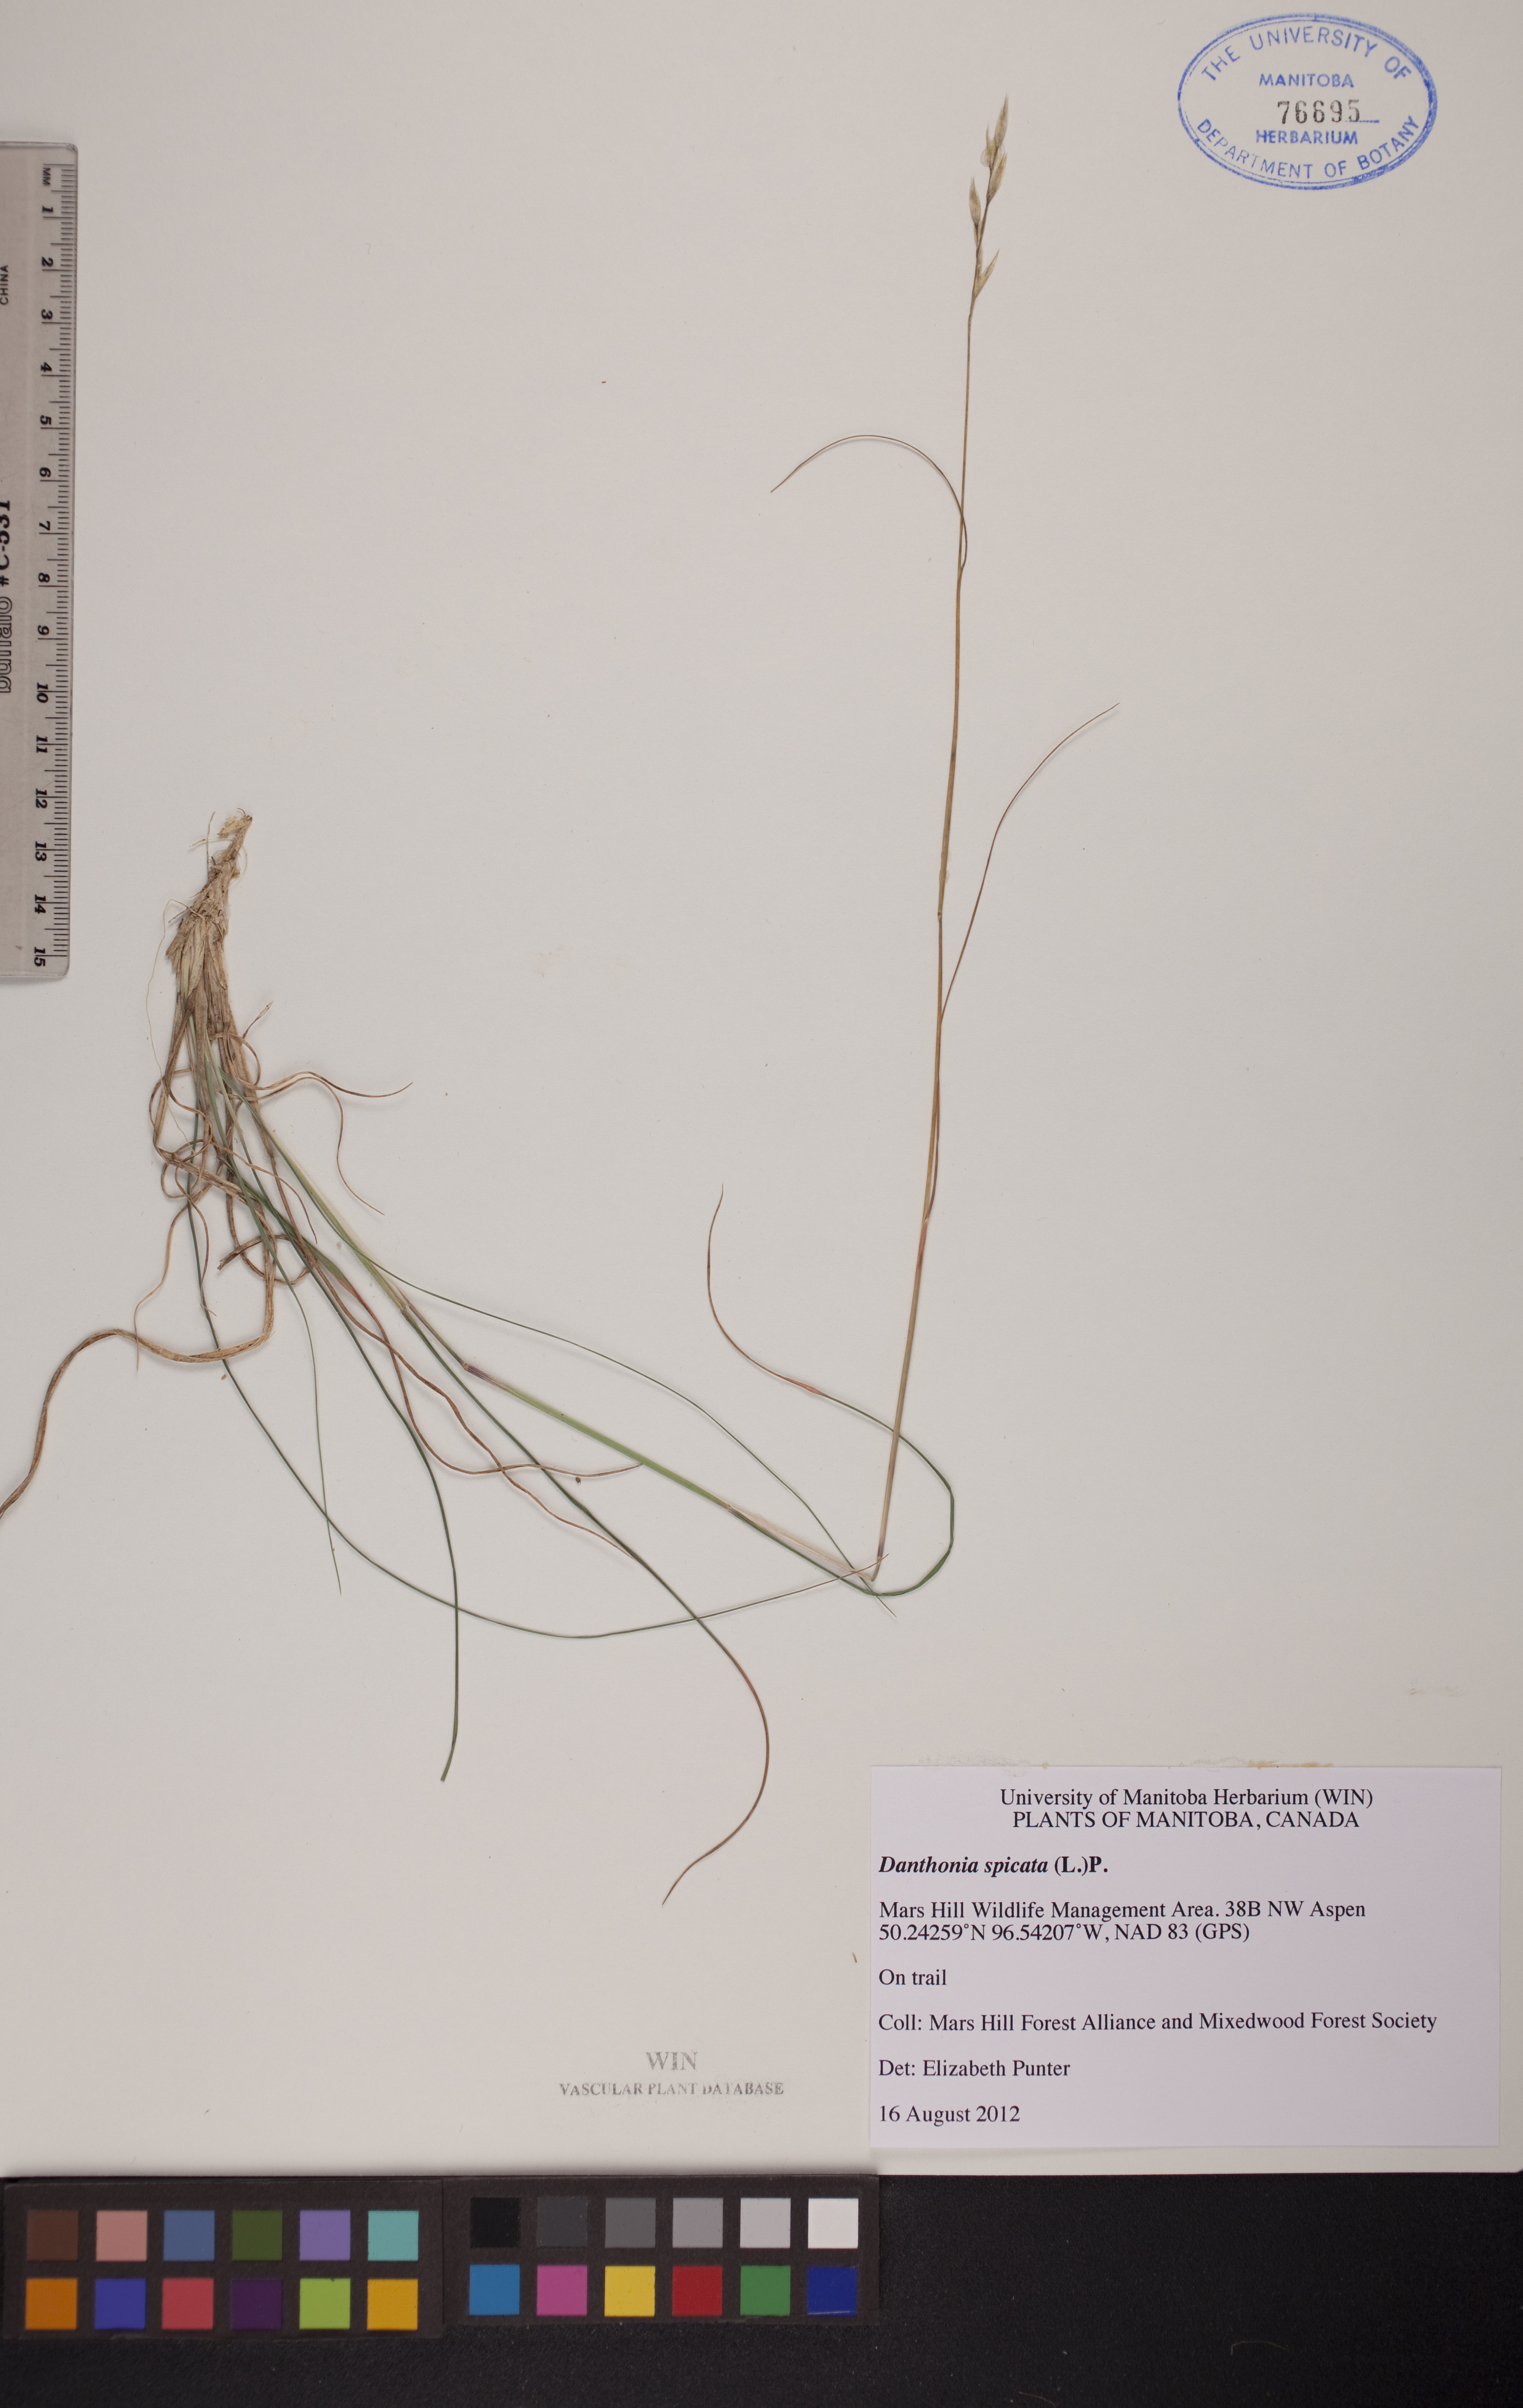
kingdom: Plantae
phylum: Tracheophyta
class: Liliopsida
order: Poales
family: Poaceae
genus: Danthonia
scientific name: Danthonia spicata
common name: Common wild oatgrass
